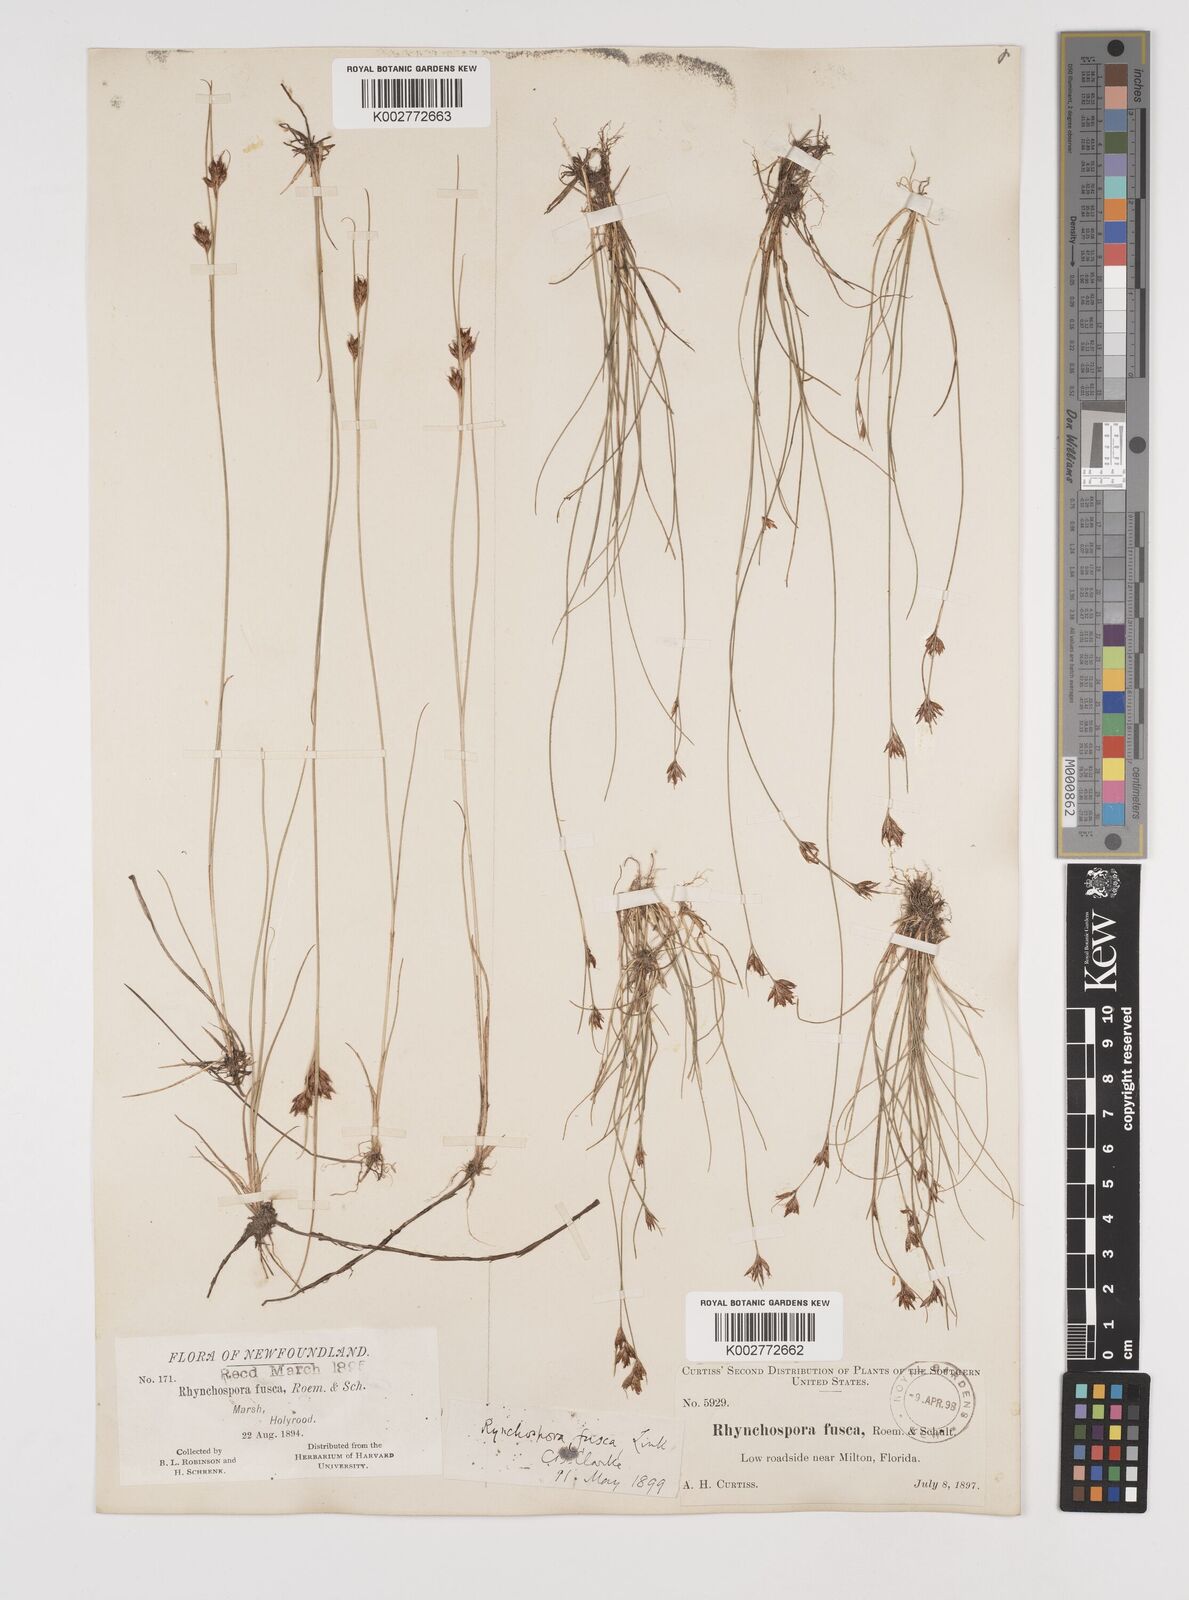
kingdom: Plantae
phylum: Tracheophyta
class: Liliopsida
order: Poales
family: Cyperaceae
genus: Rhynchospora
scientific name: Rhynchospora fusca
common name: Brown beak-sedge
